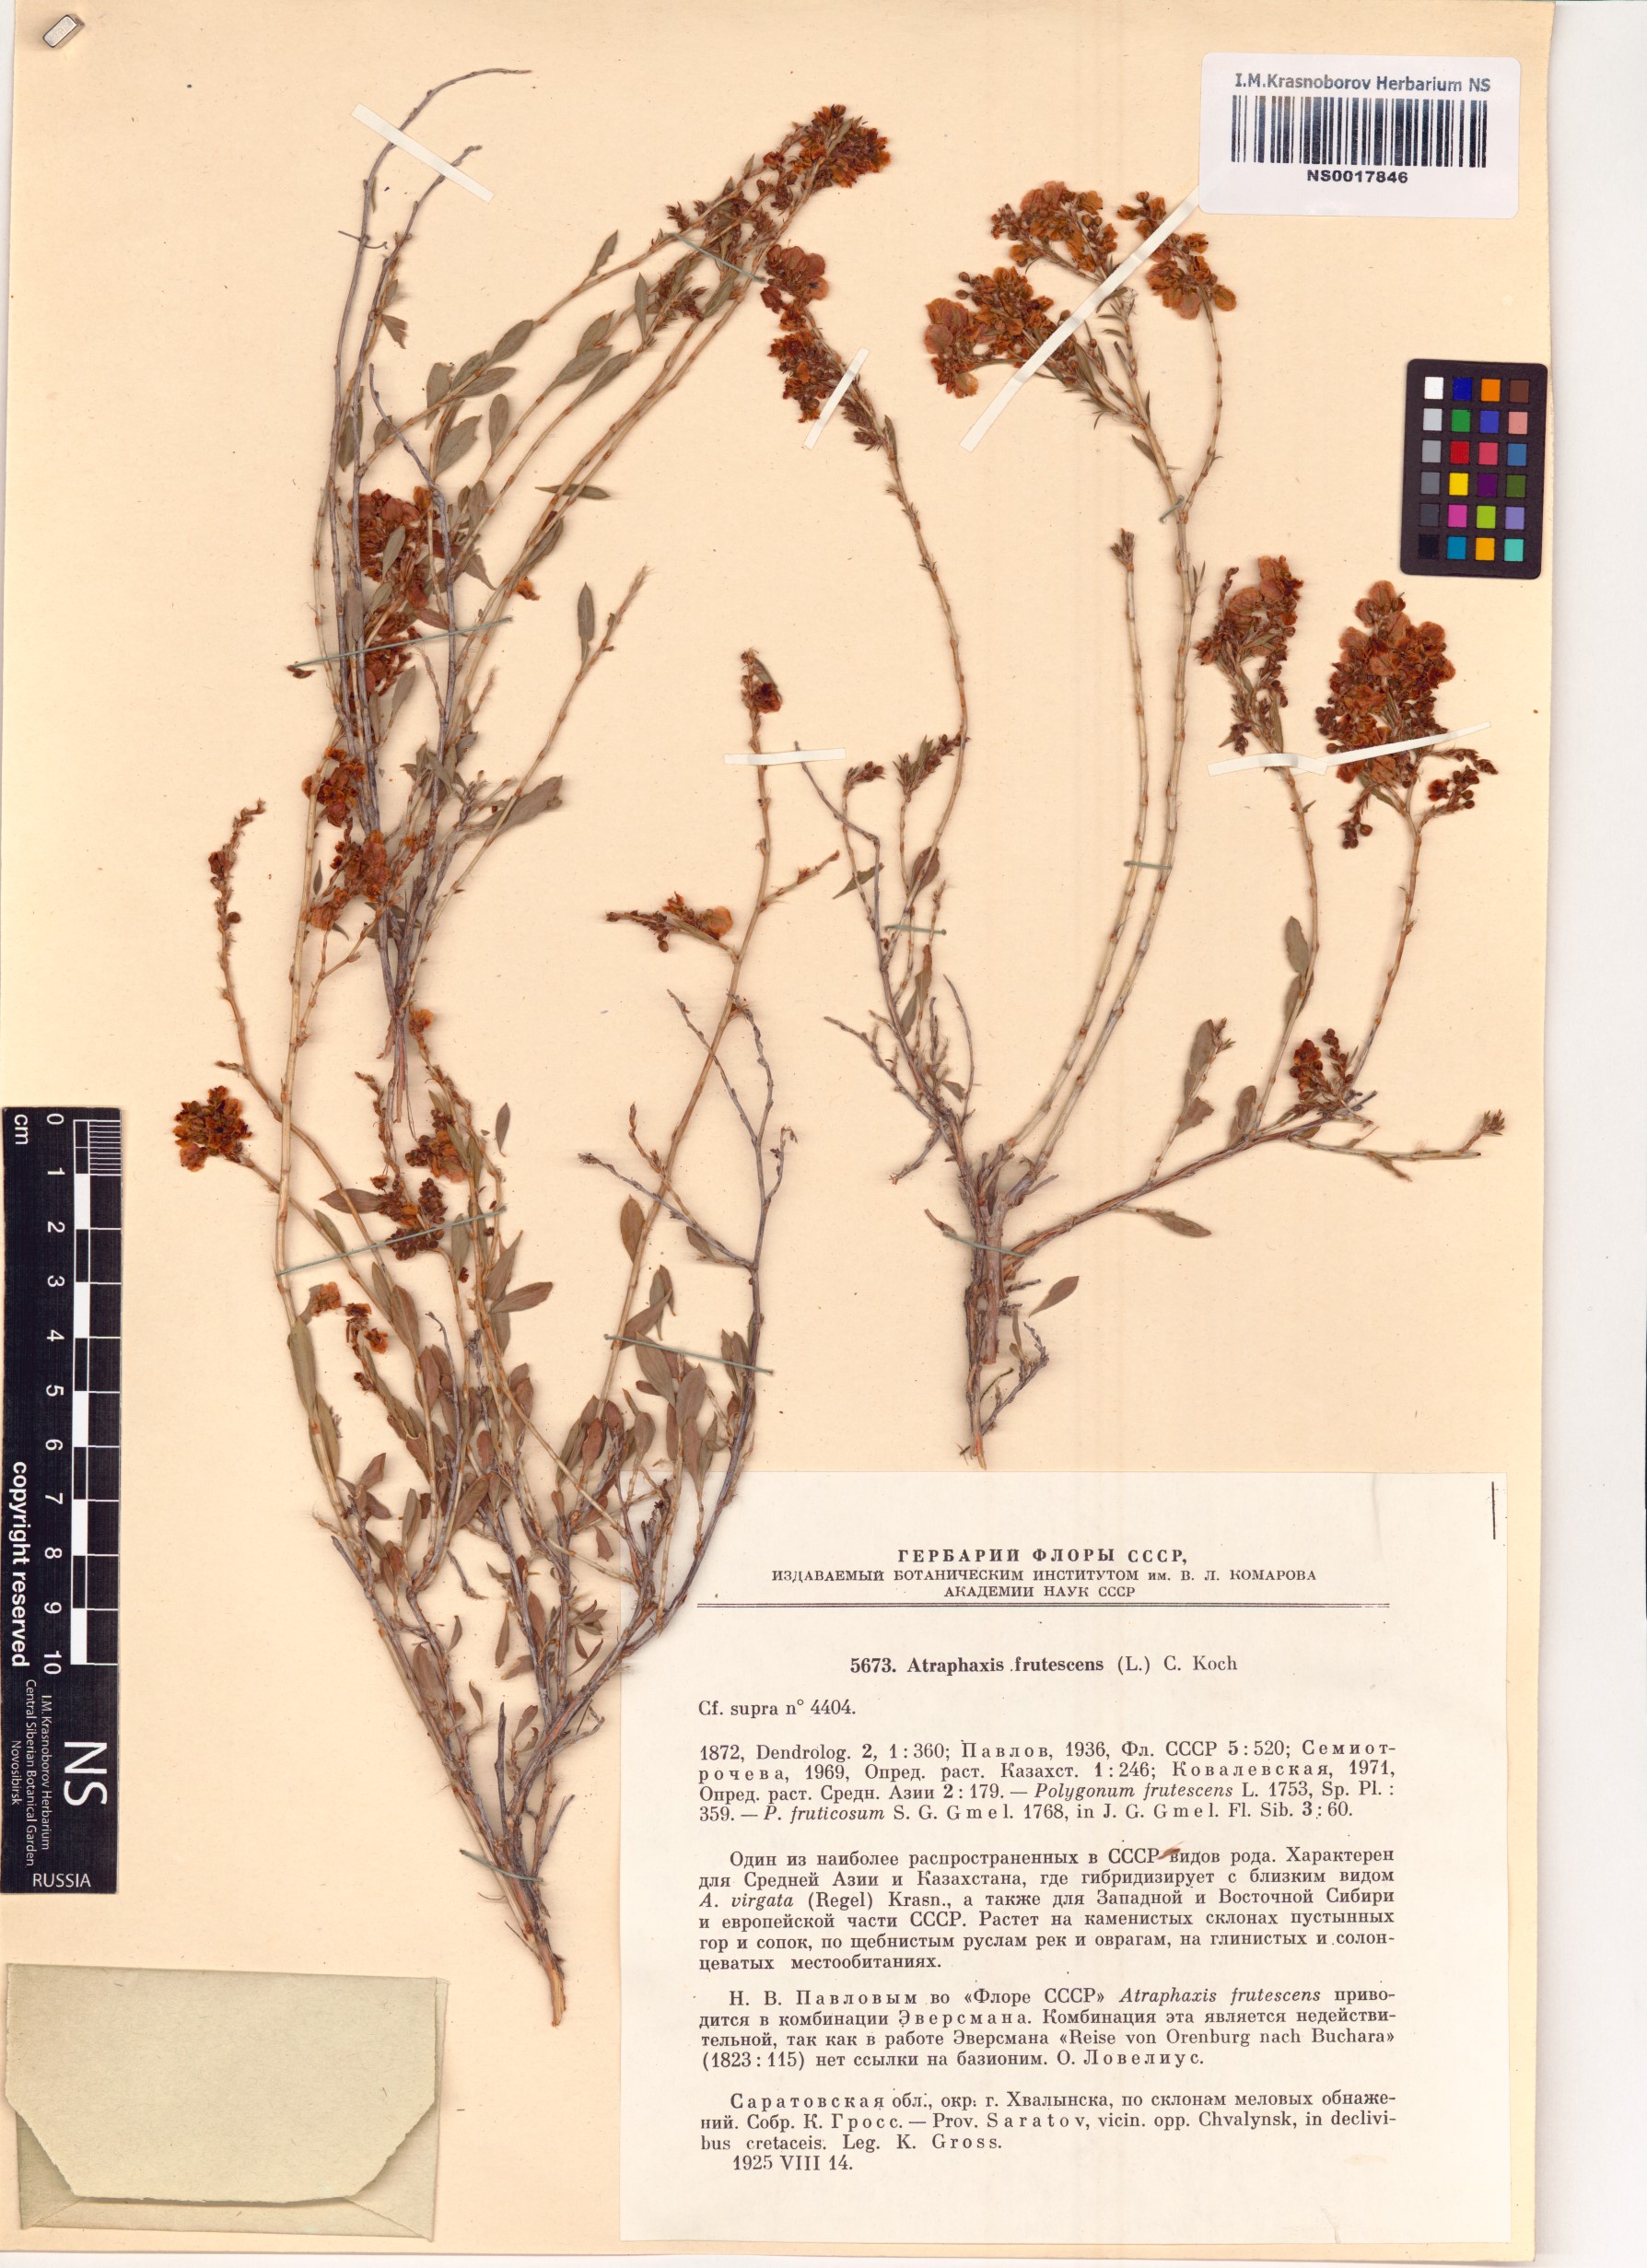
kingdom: Plantae
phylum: Tracheophyta
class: Magnoliopsida
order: Caryophyllales
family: Polygonaceae
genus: Atraphaxis
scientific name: Atraphaxis frutescens
